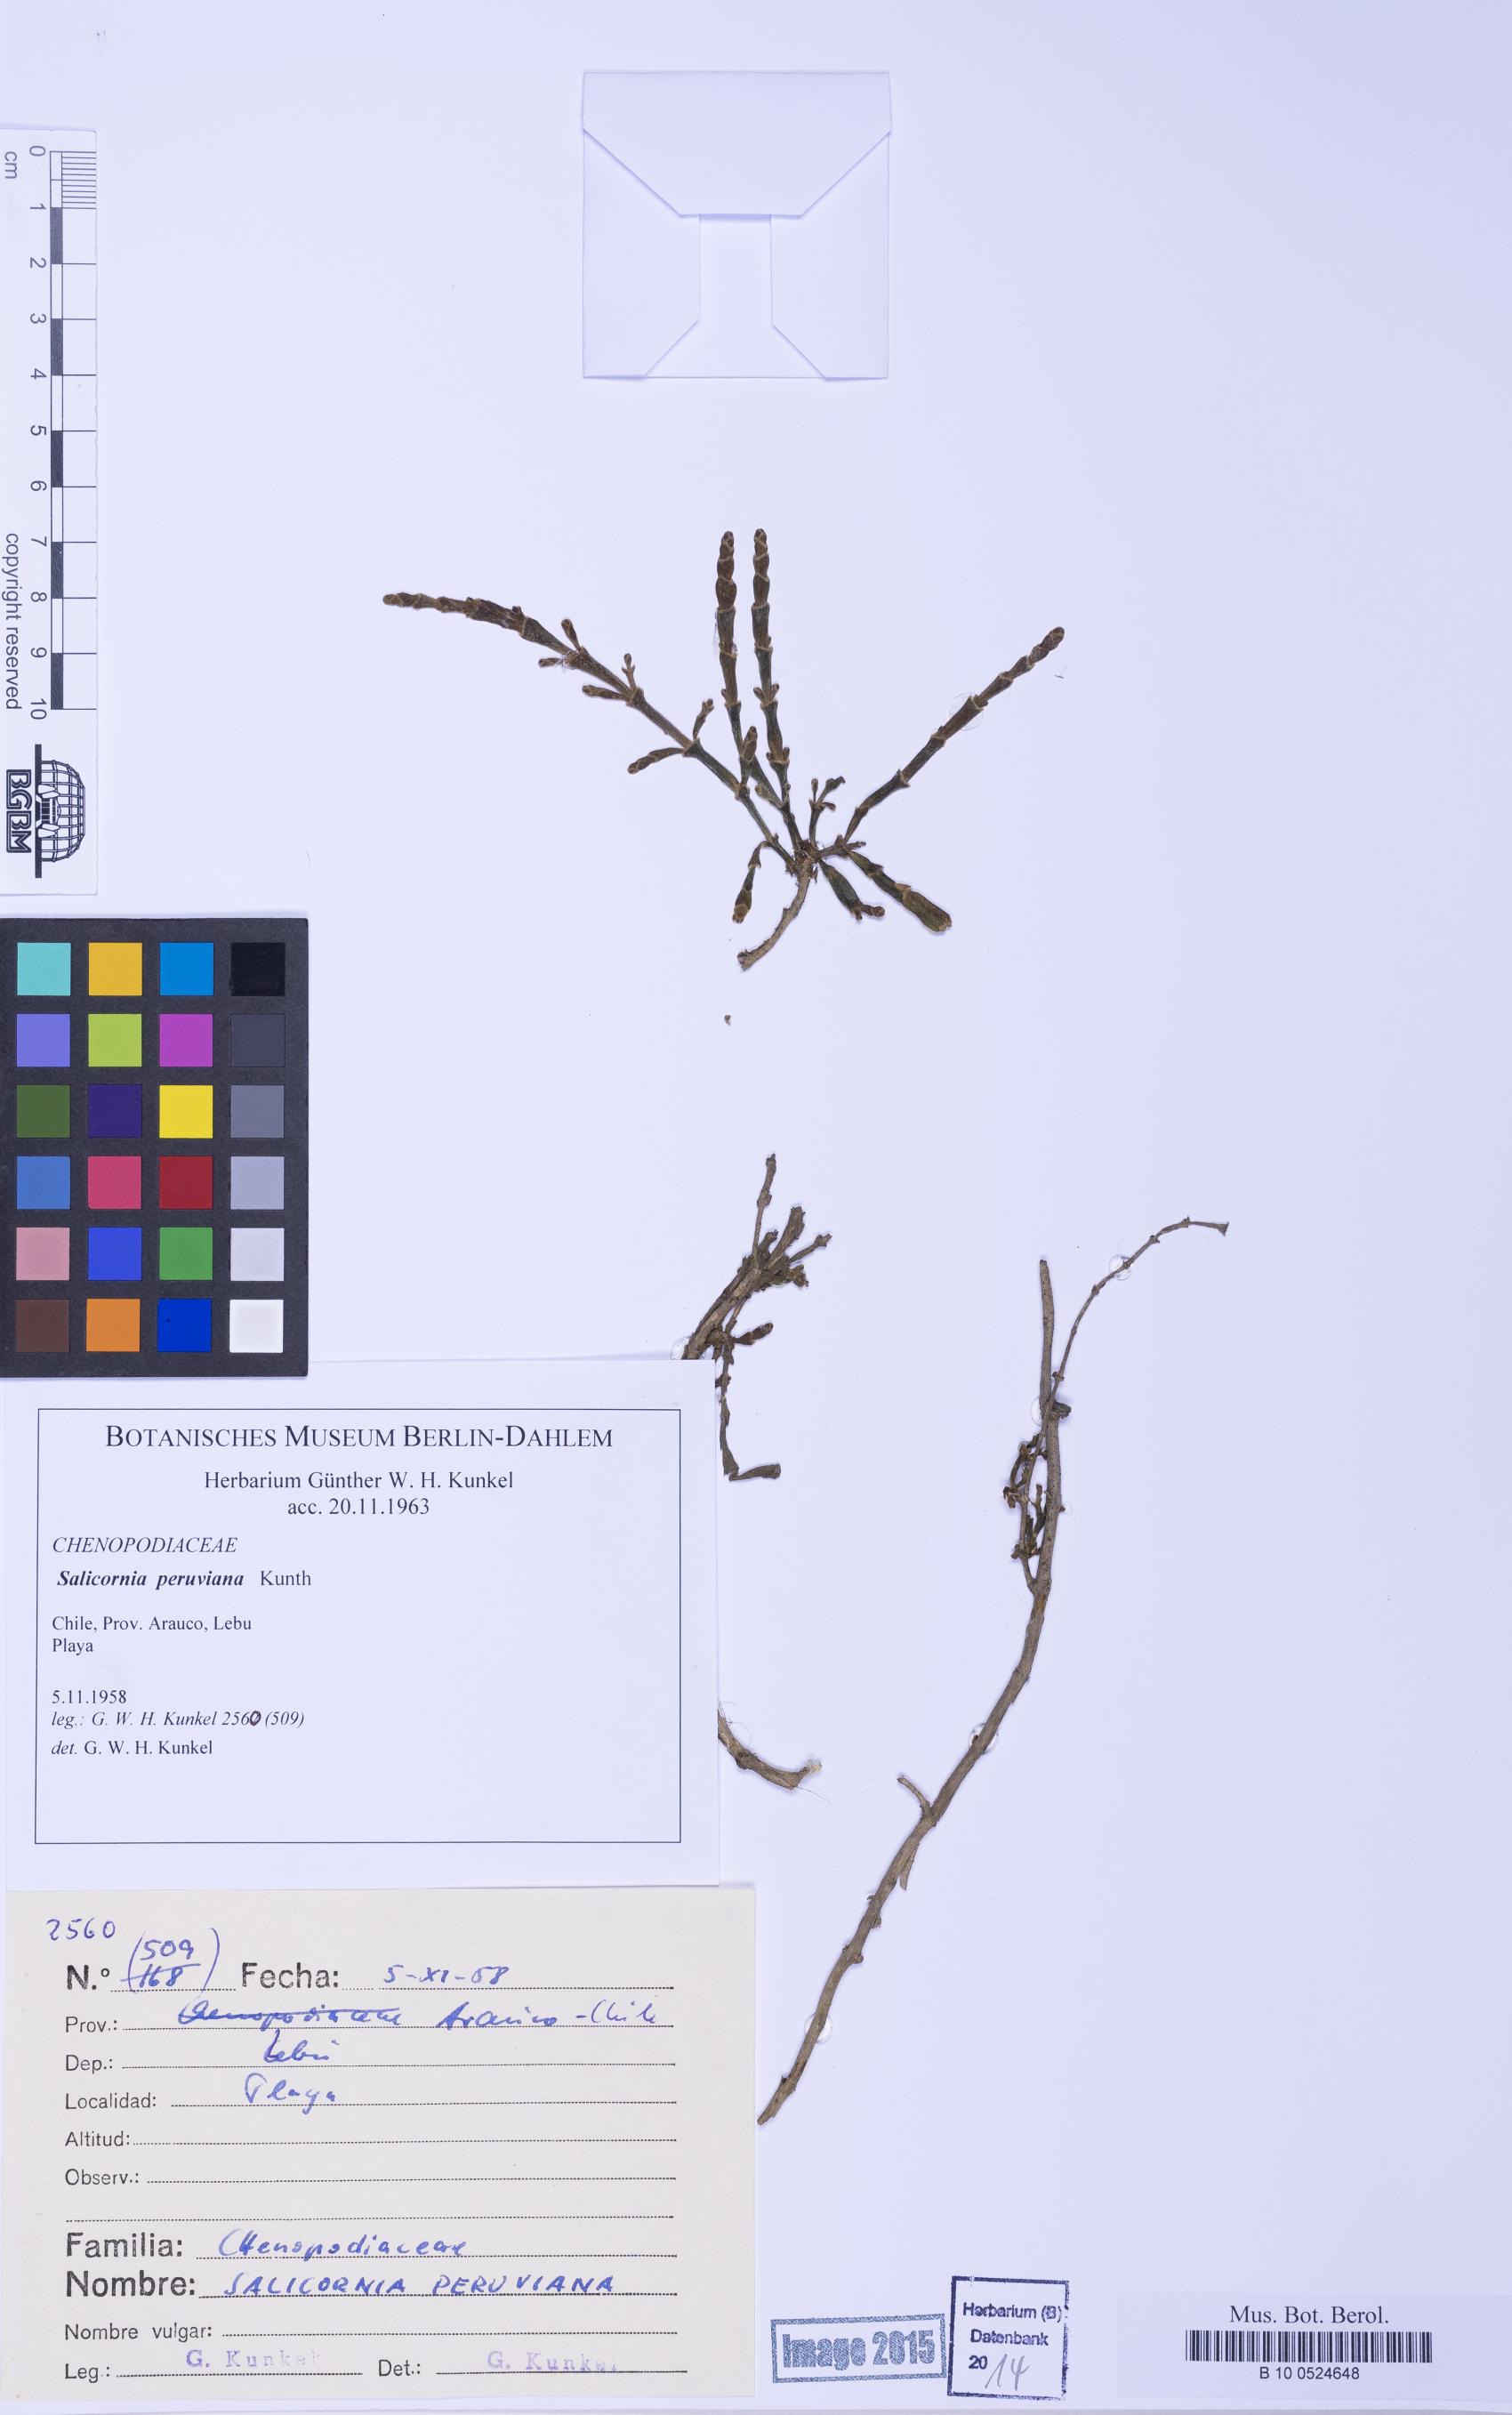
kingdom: Plantae
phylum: Tracheophyta
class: Magnoliopsida
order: Caryophyllales
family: Amaranthaceae
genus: Salicornia
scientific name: Salicornia neei
